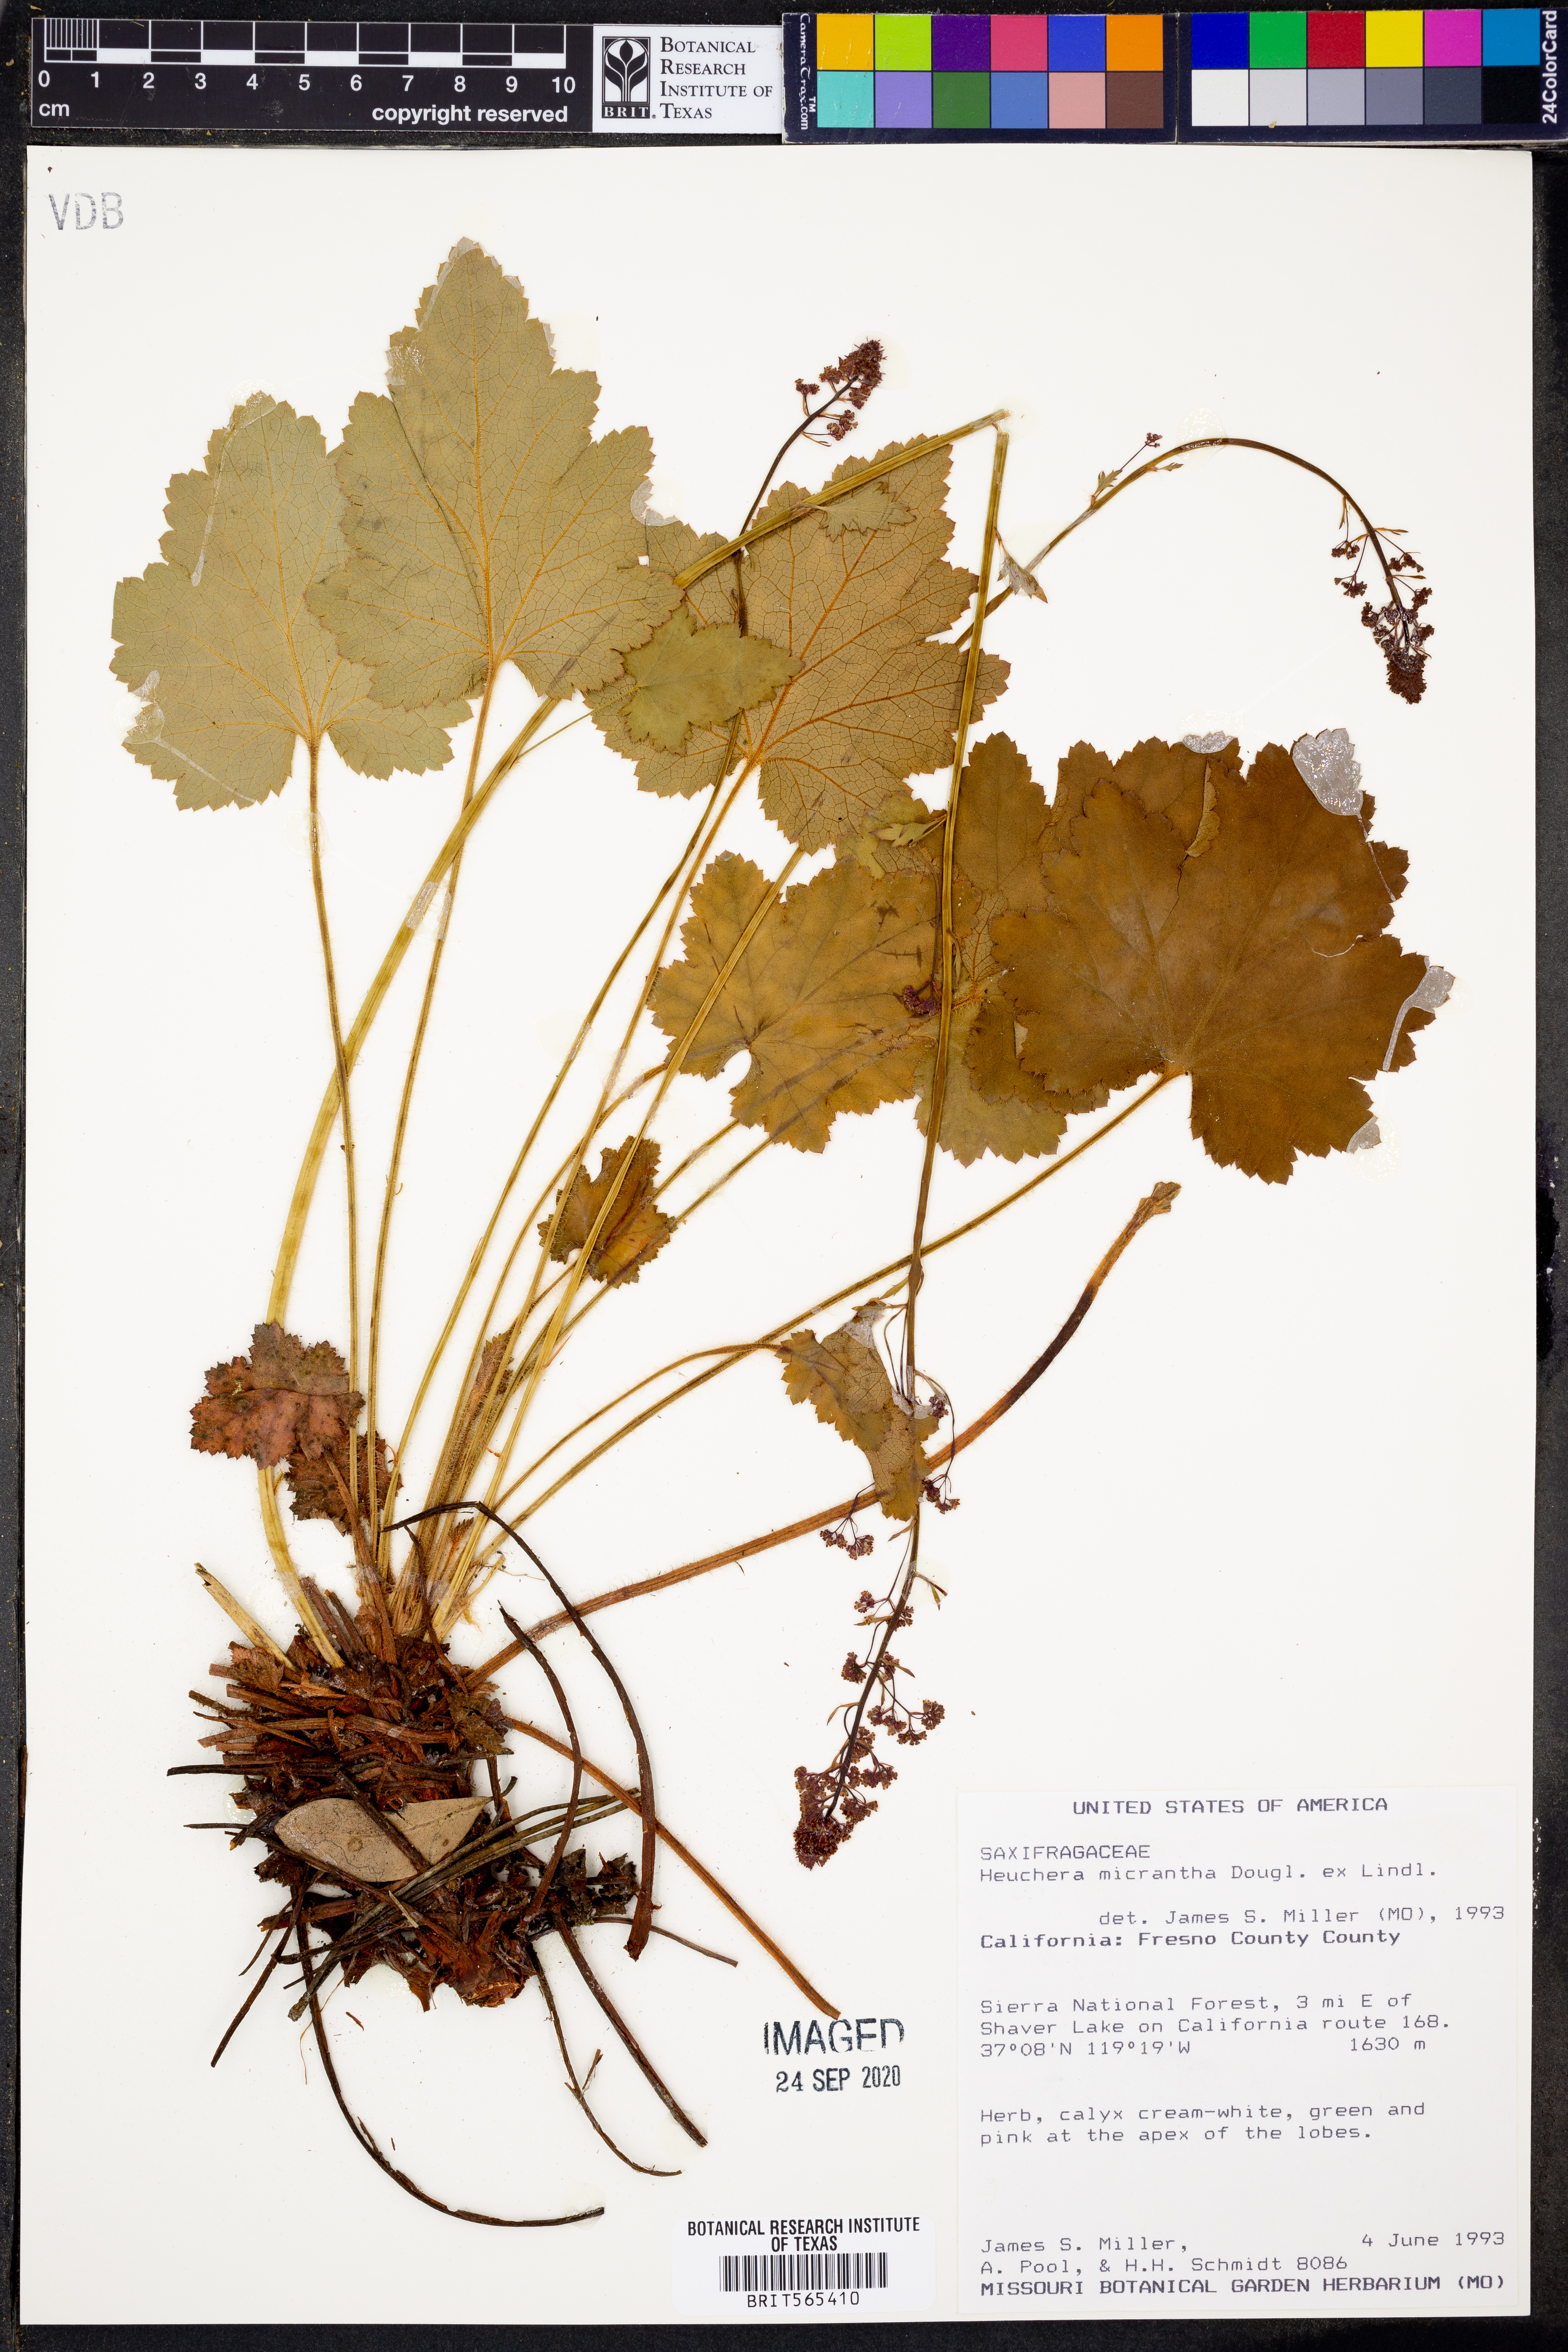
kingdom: Plantae
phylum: Tracheophyta
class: Magnoliopsida
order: Saxifragales
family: Saxifragaceae
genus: Heuchera
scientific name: Heuchera micrantha
